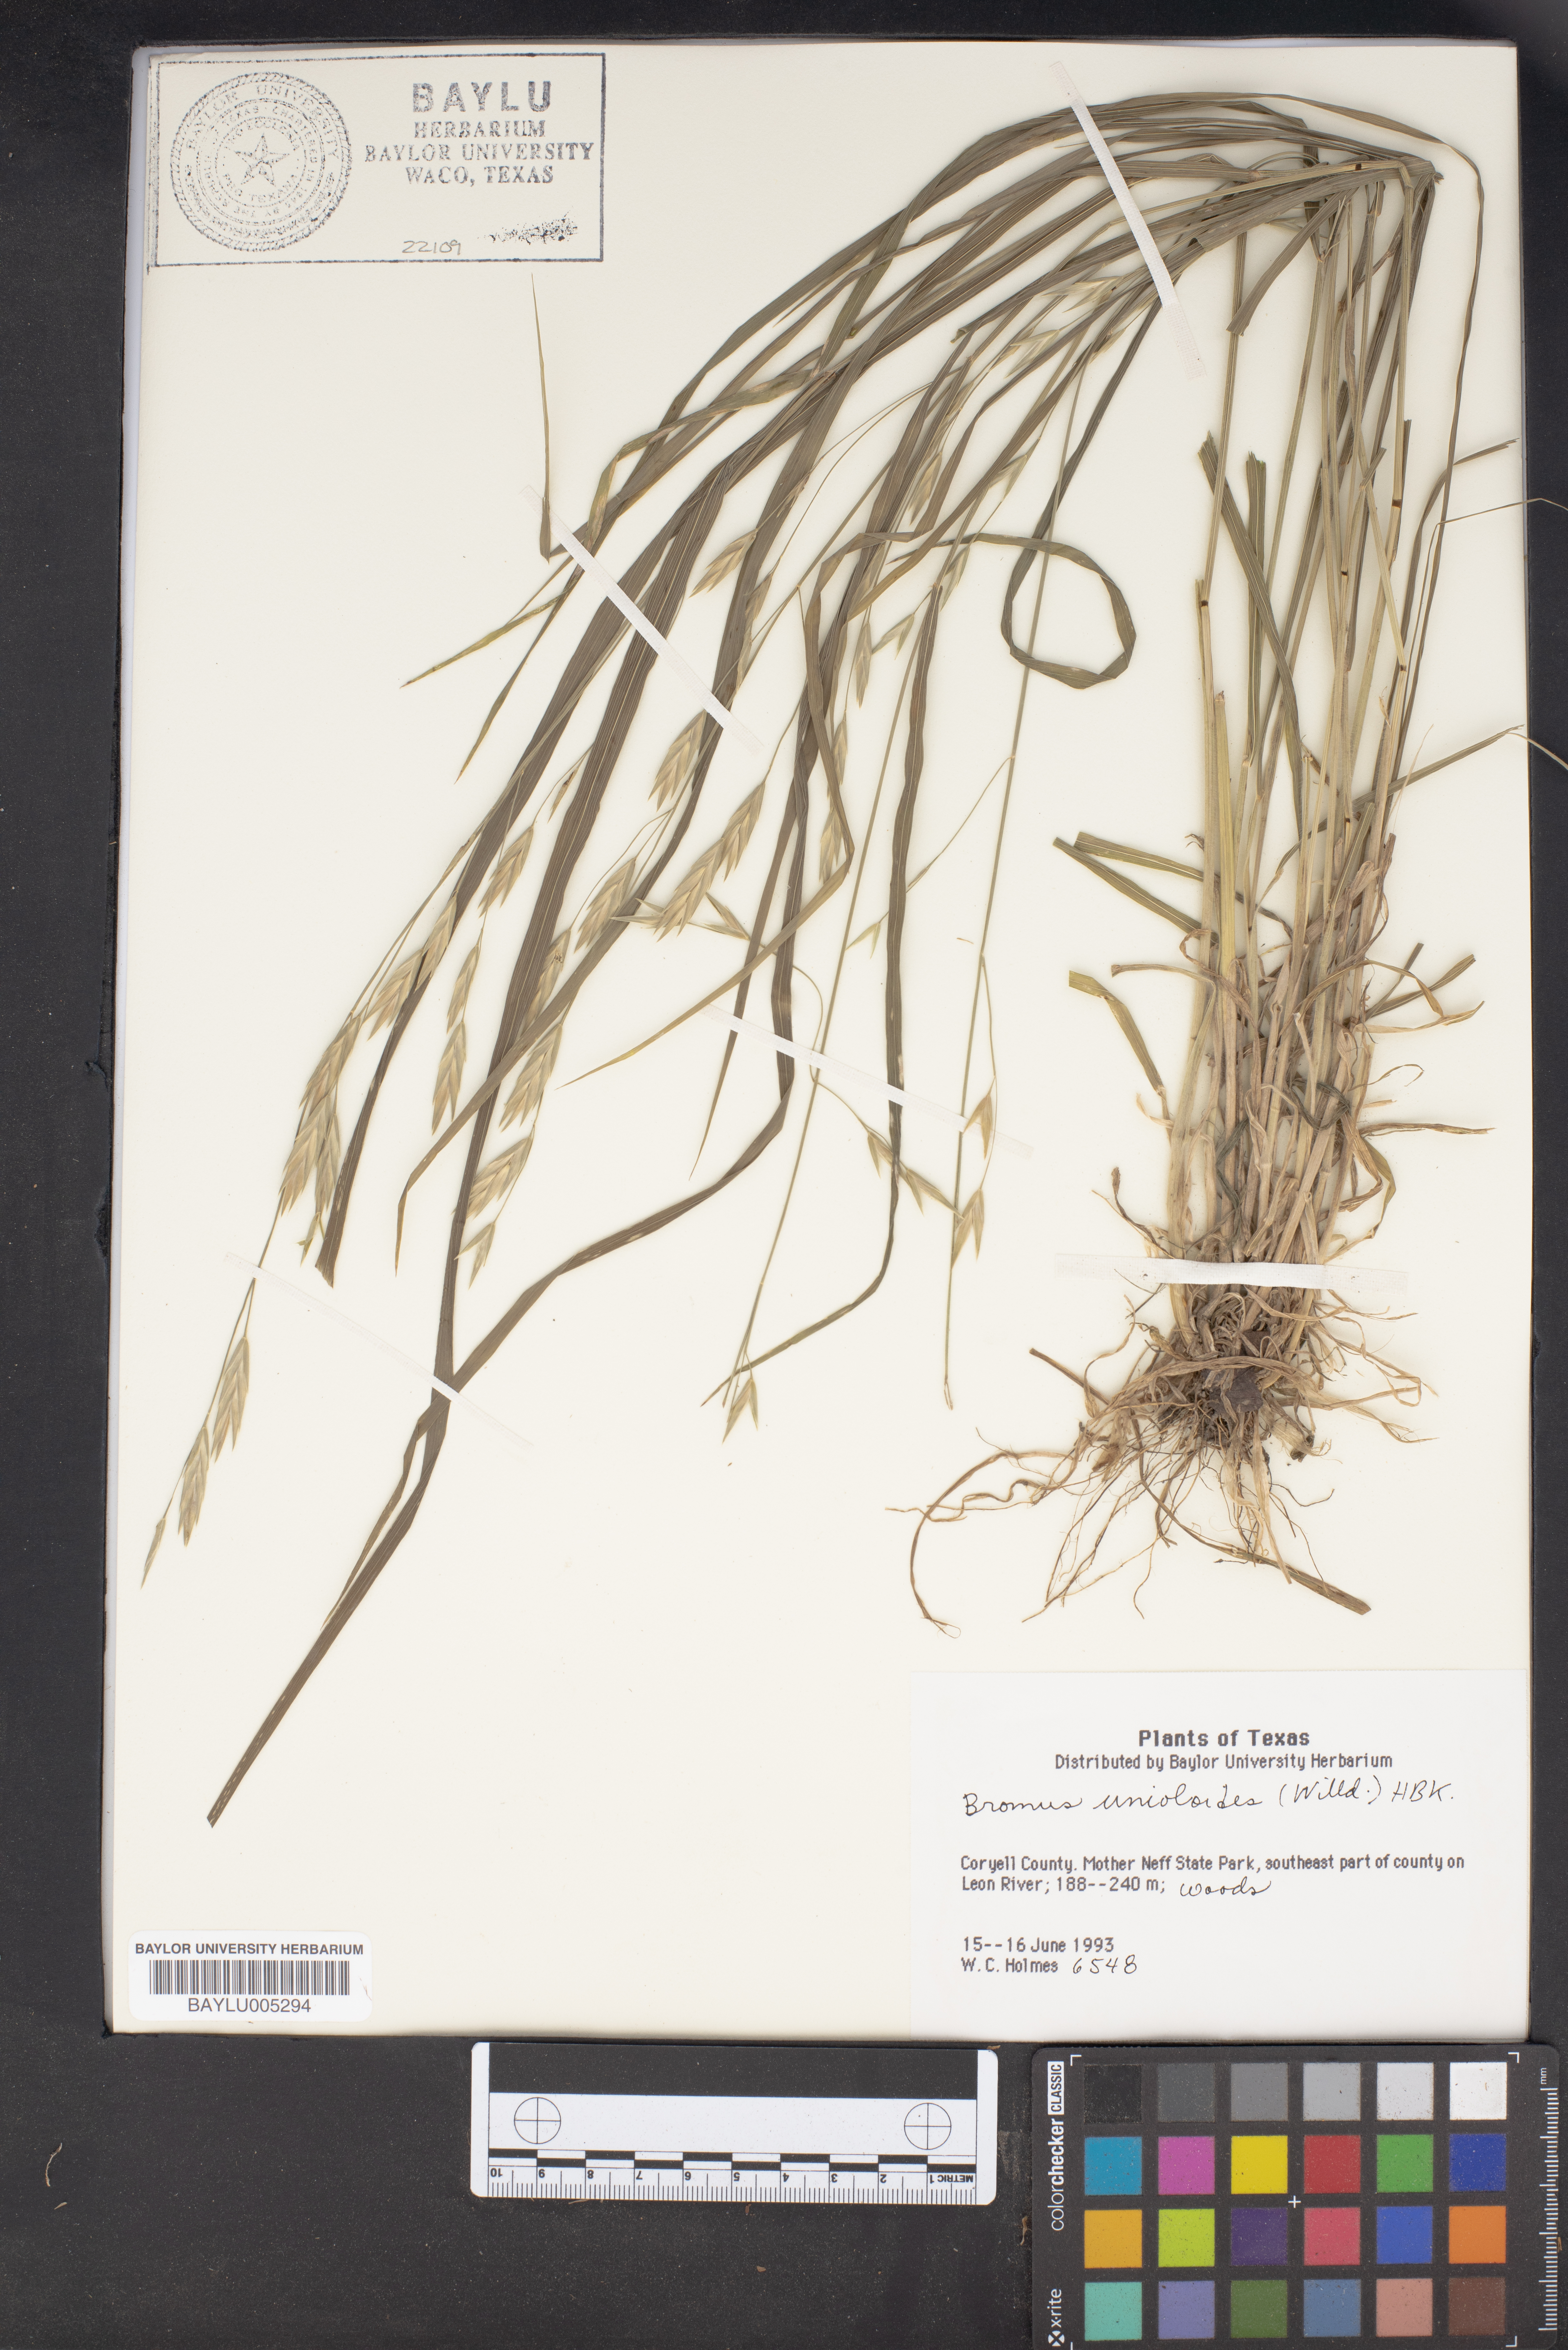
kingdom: Plantae
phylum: Tracheophyta
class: Liliopsida
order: Poales
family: Poaceae
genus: Bromus
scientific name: Bromus catharticus
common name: Rescuegrass
